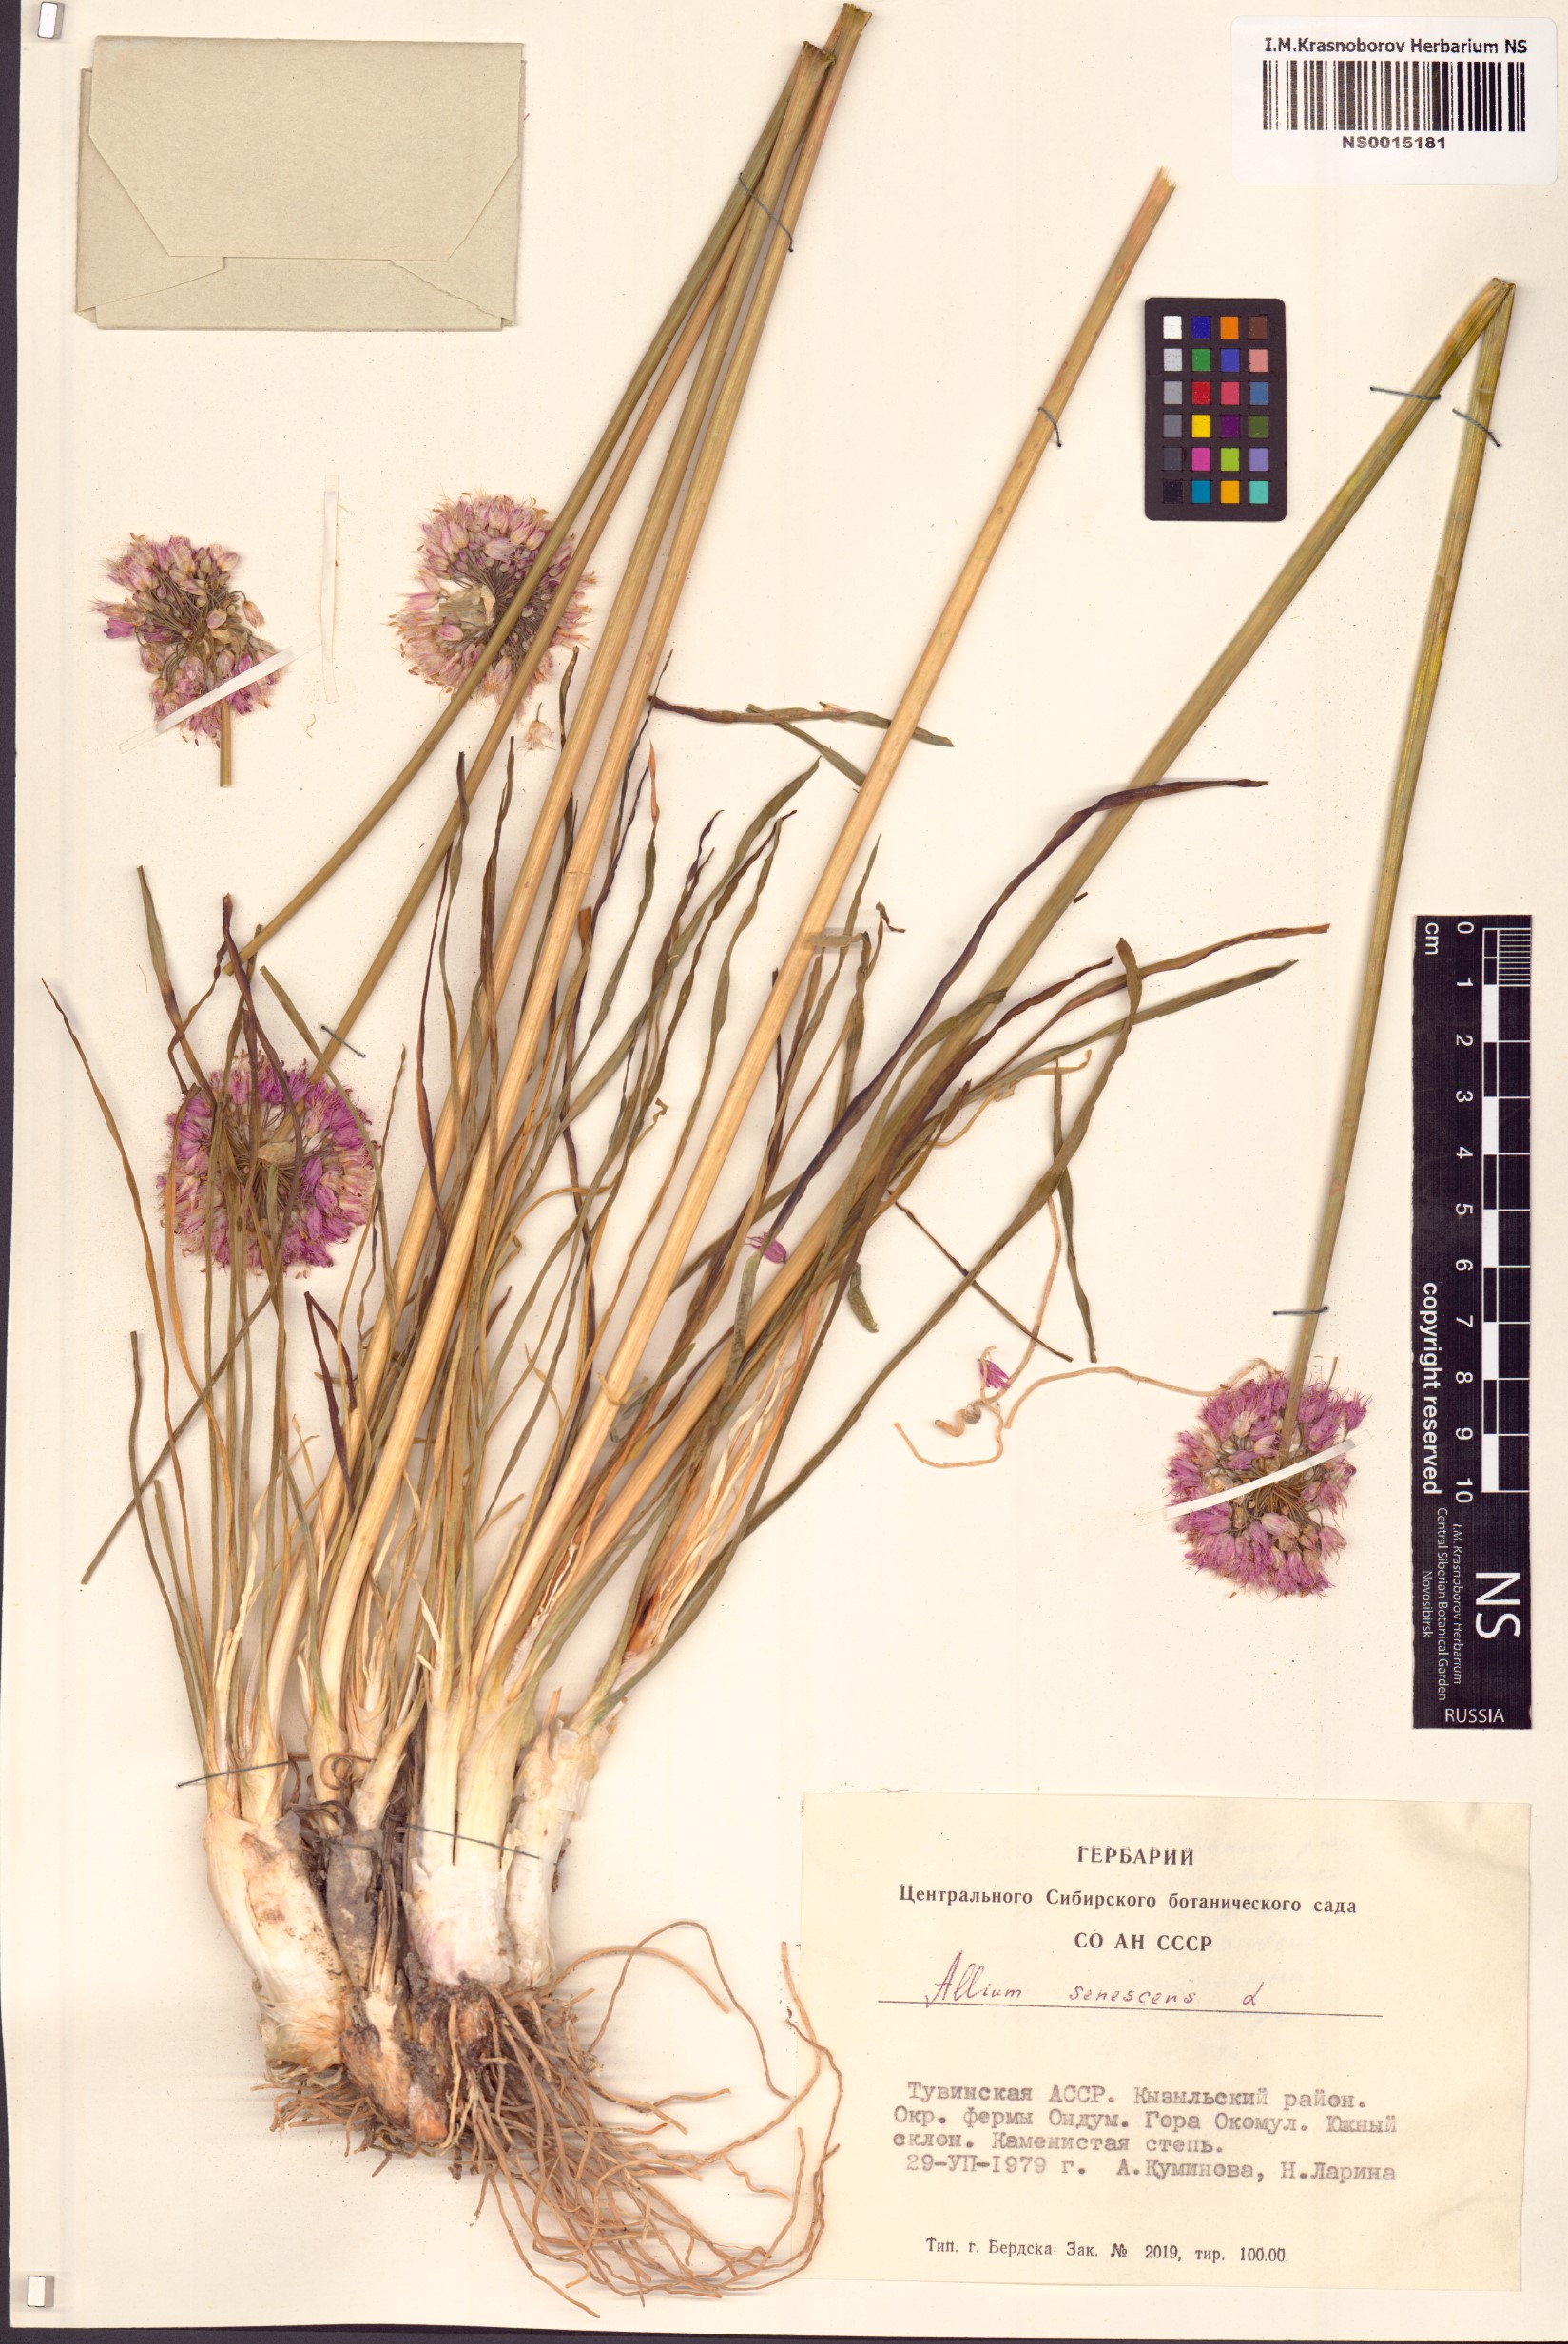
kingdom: Plantae
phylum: Tracheophyta
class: Liliopsida
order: Asparagales
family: Amaryllidaceae
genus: Allium
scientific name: Allium senescens
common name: German garlic
